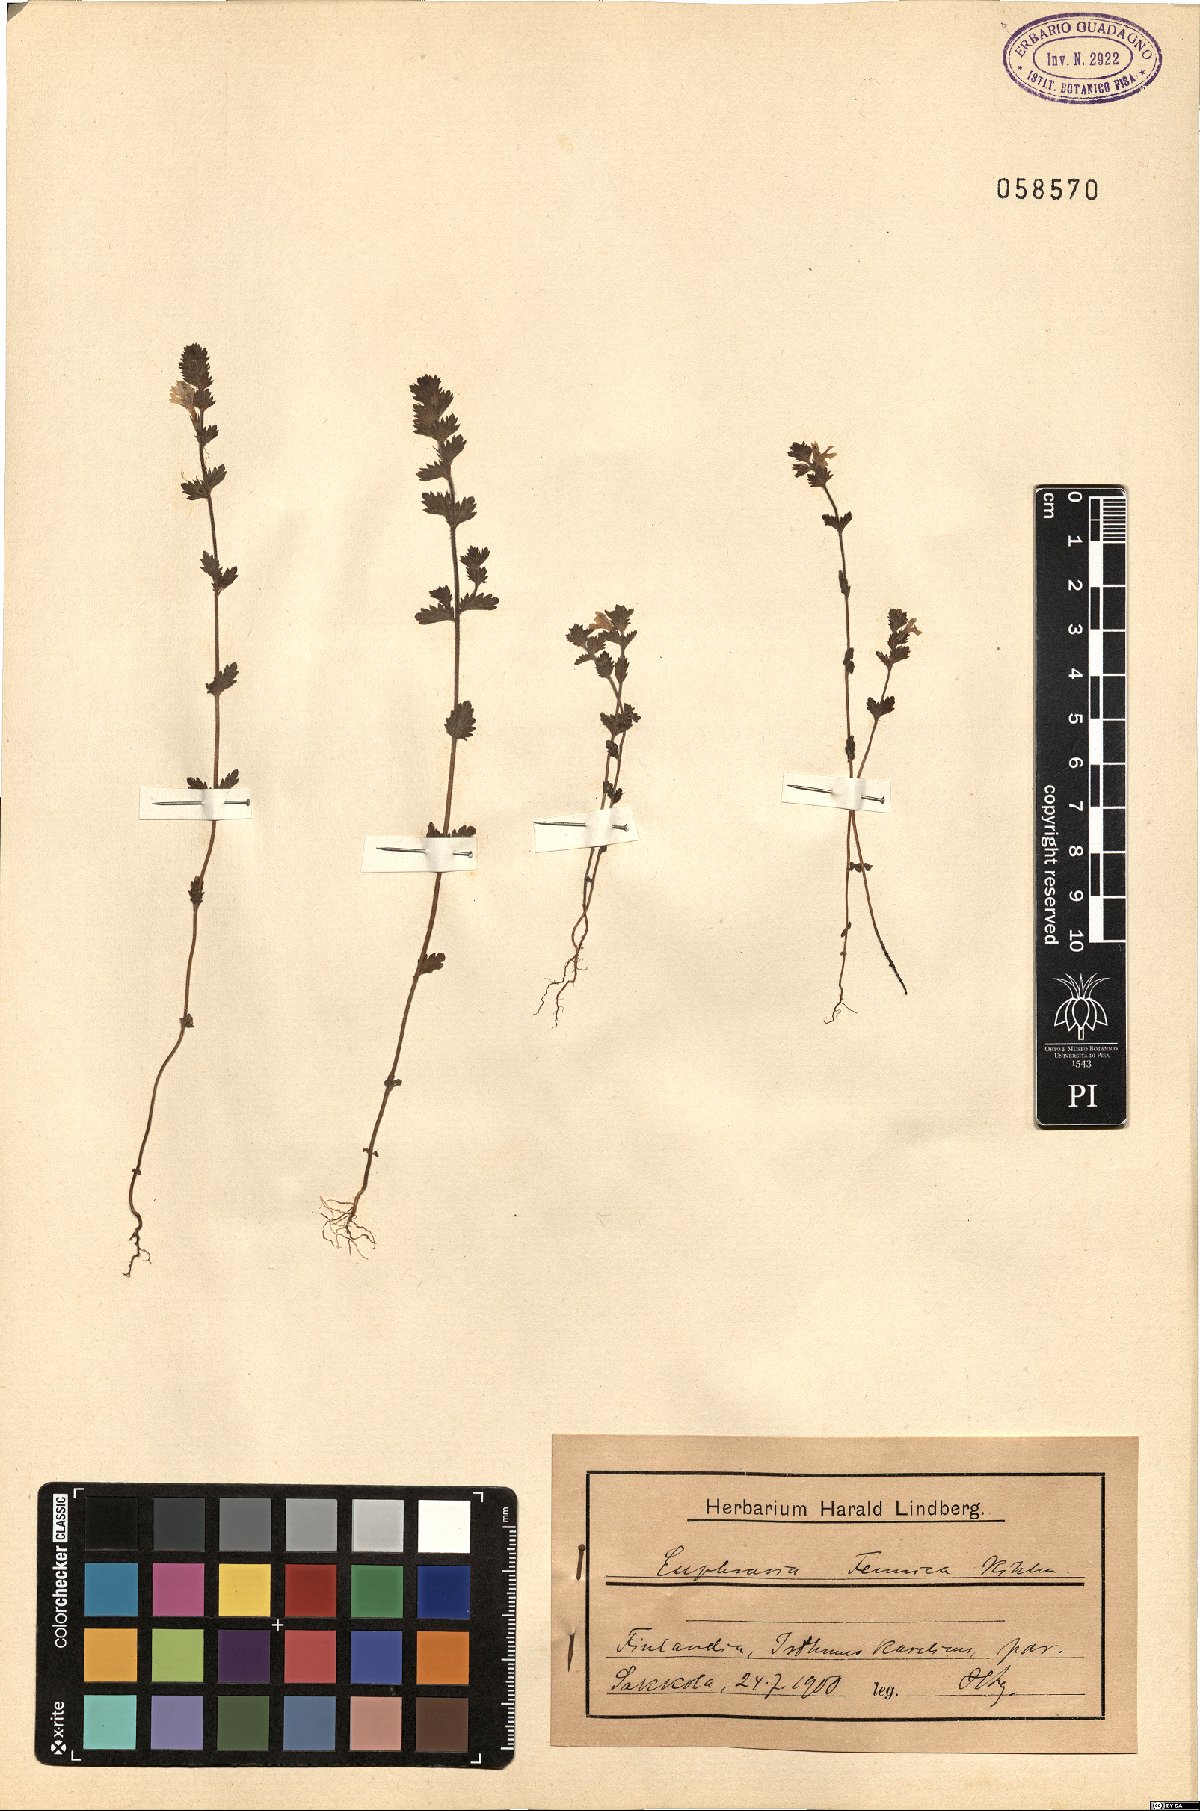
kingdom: Plantae
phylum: Tracheophyta
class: Magnoliopsida
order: Lamiales
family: Orobanchaceae
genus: Euphrasia
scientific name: Euphrasia officinalis
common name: Eyebright
